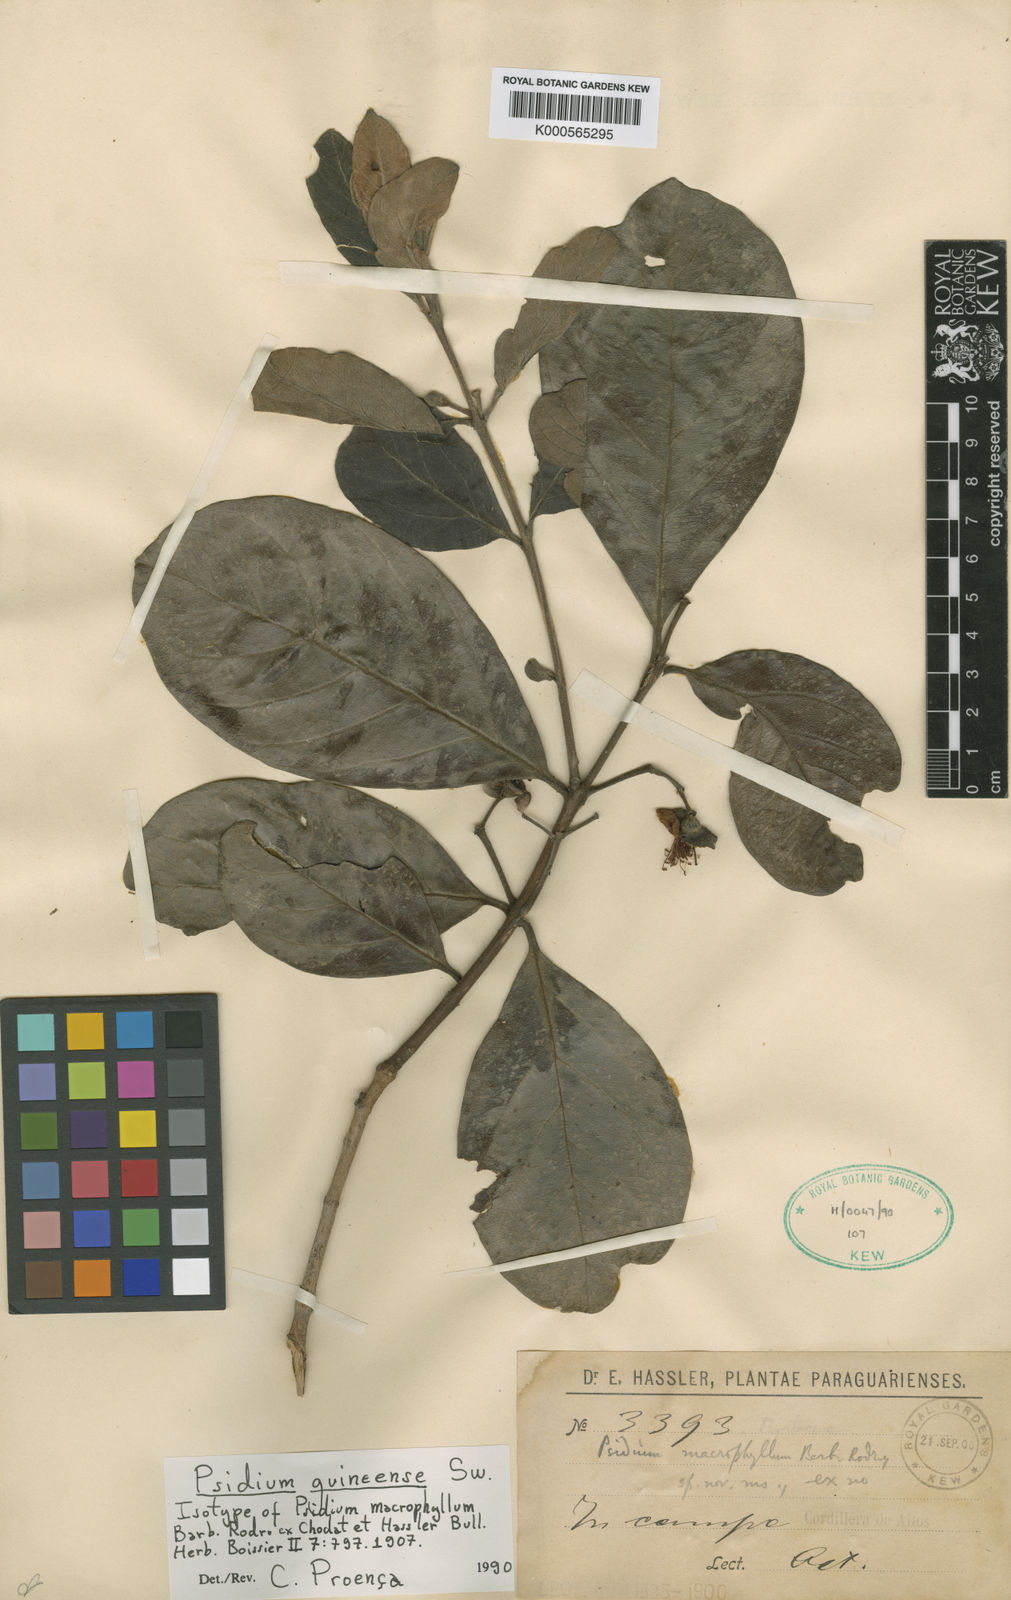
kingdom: Plantae
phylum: Tracheophyta
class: Magnoliopsida
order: Myrtales
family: Myrtaceae
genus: Psidium
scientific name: Psidium guineense
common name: Brazilian guava
